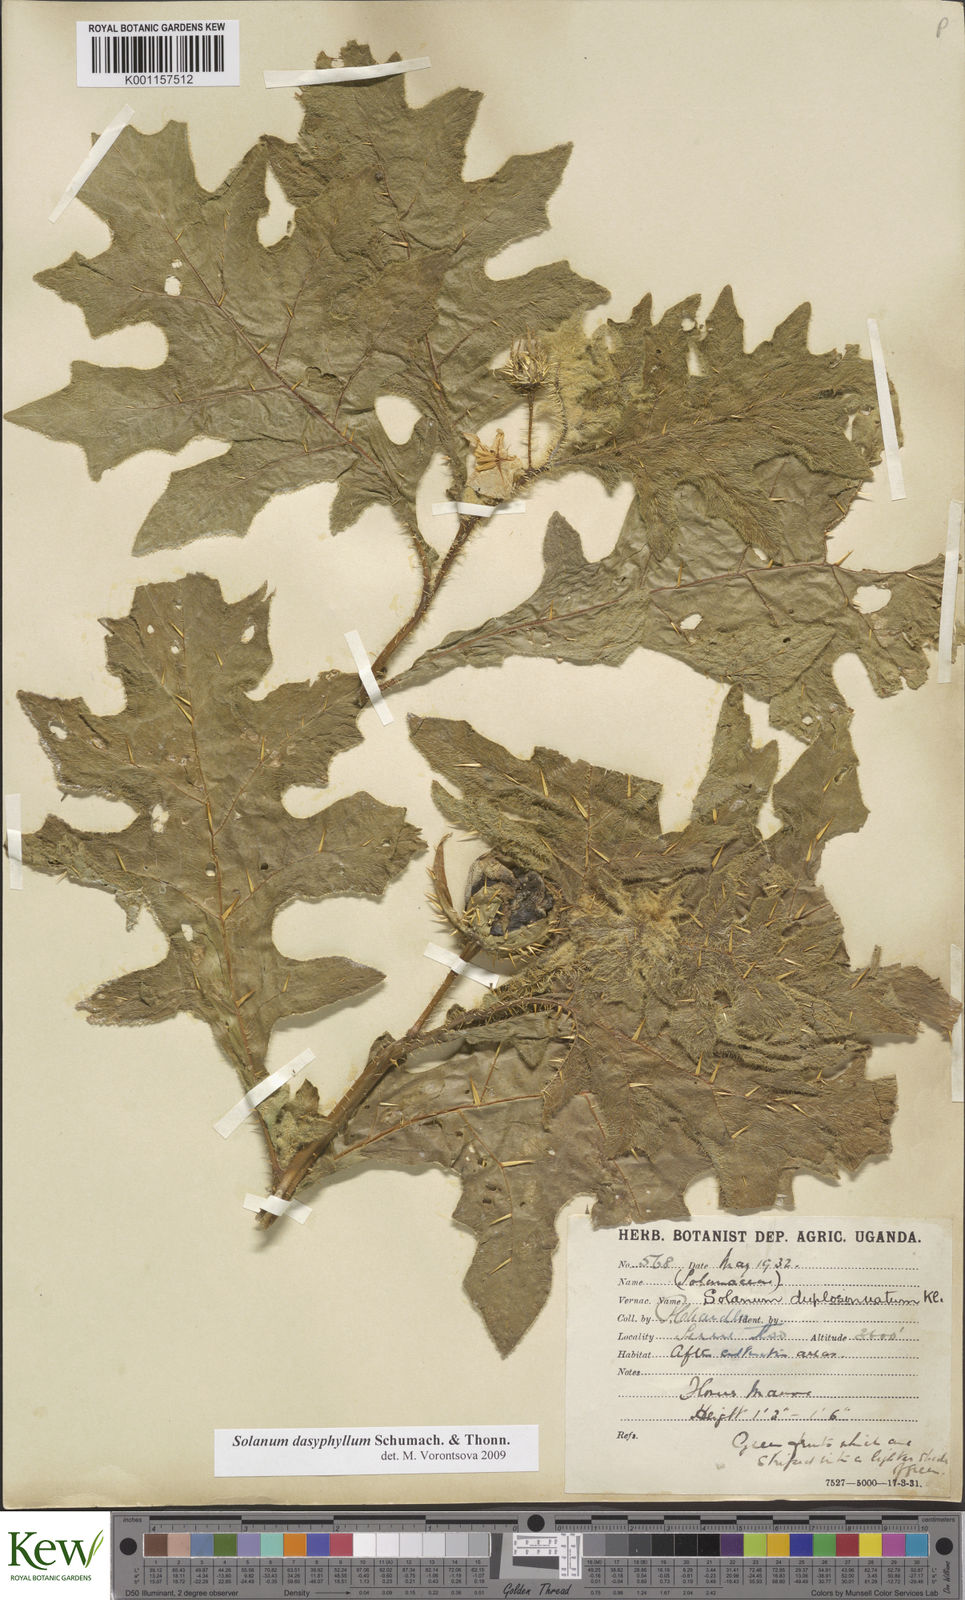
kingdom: Plantae
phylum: Tracheophyta
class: Magnoliopsida
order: Solanales
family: Solanaceae
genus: Solanum
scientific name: Solanum dasyphyllum
